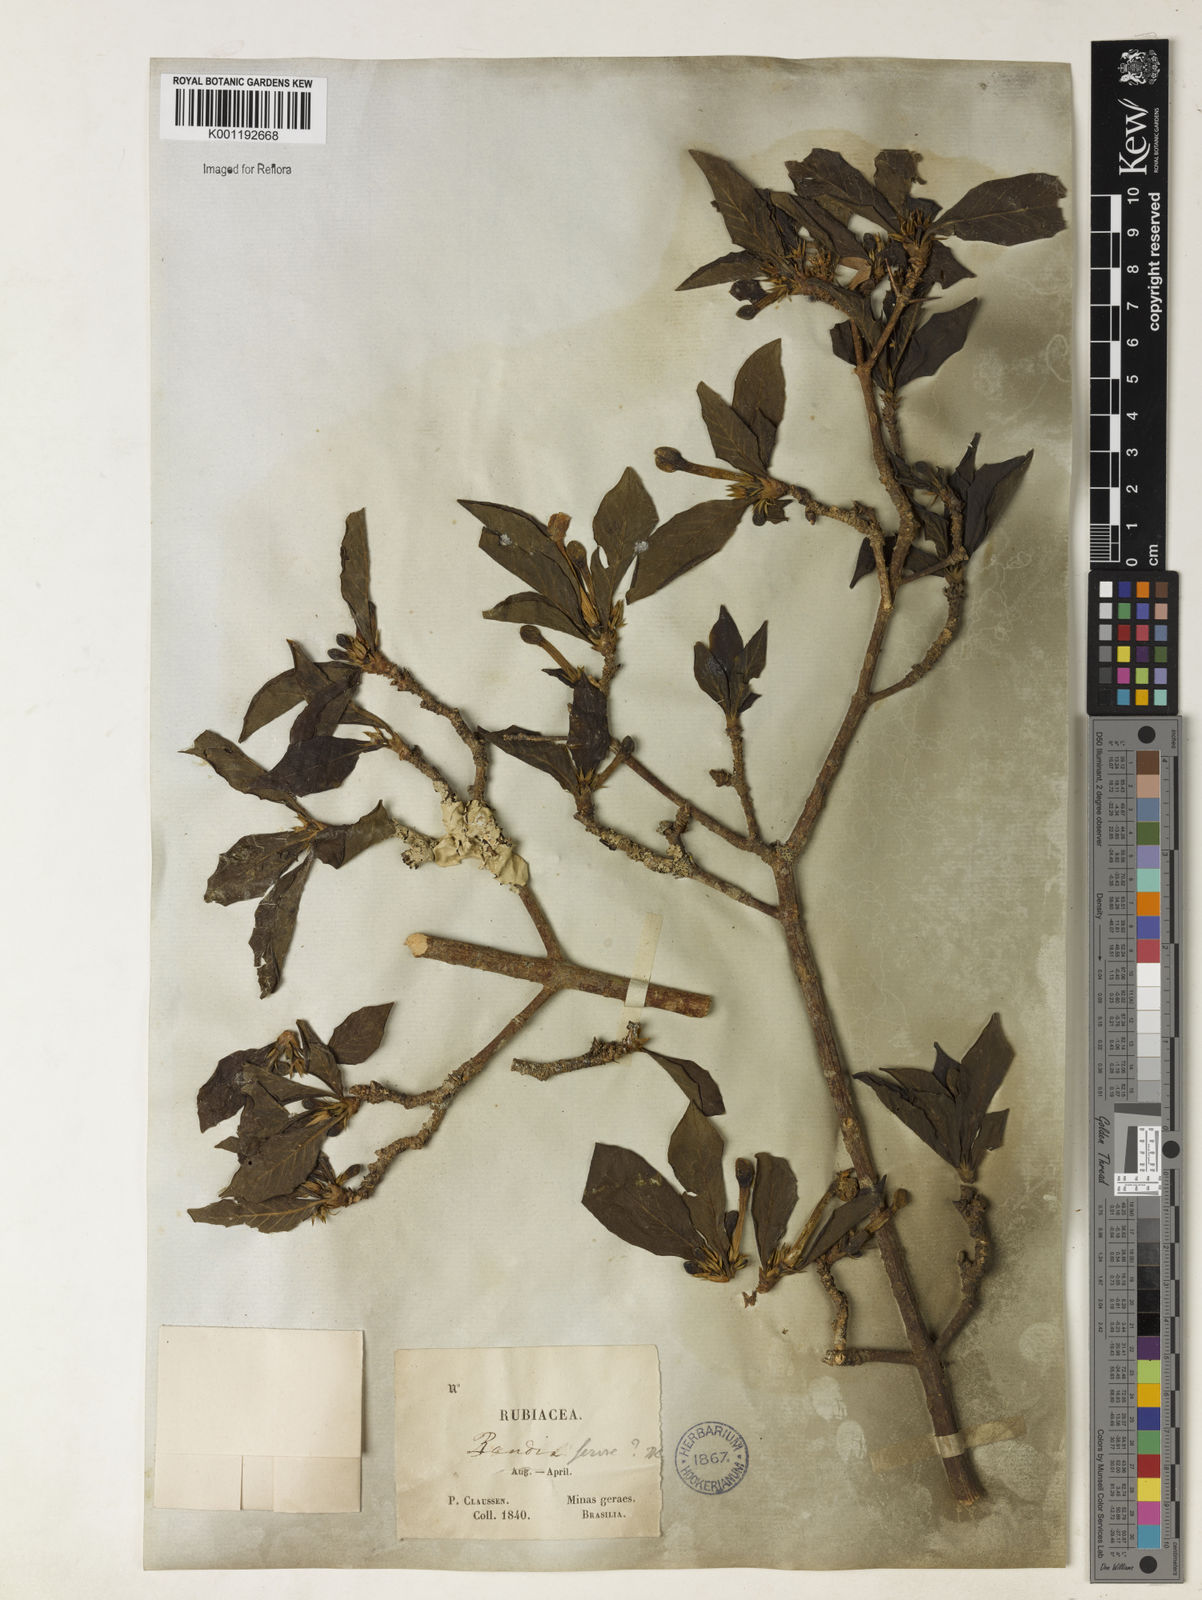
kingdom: Plantae
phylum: Tracheophyta
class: Magnoliopsida
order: Gentianales
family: Rubiaceae
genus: Randia
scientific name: Randia armata
